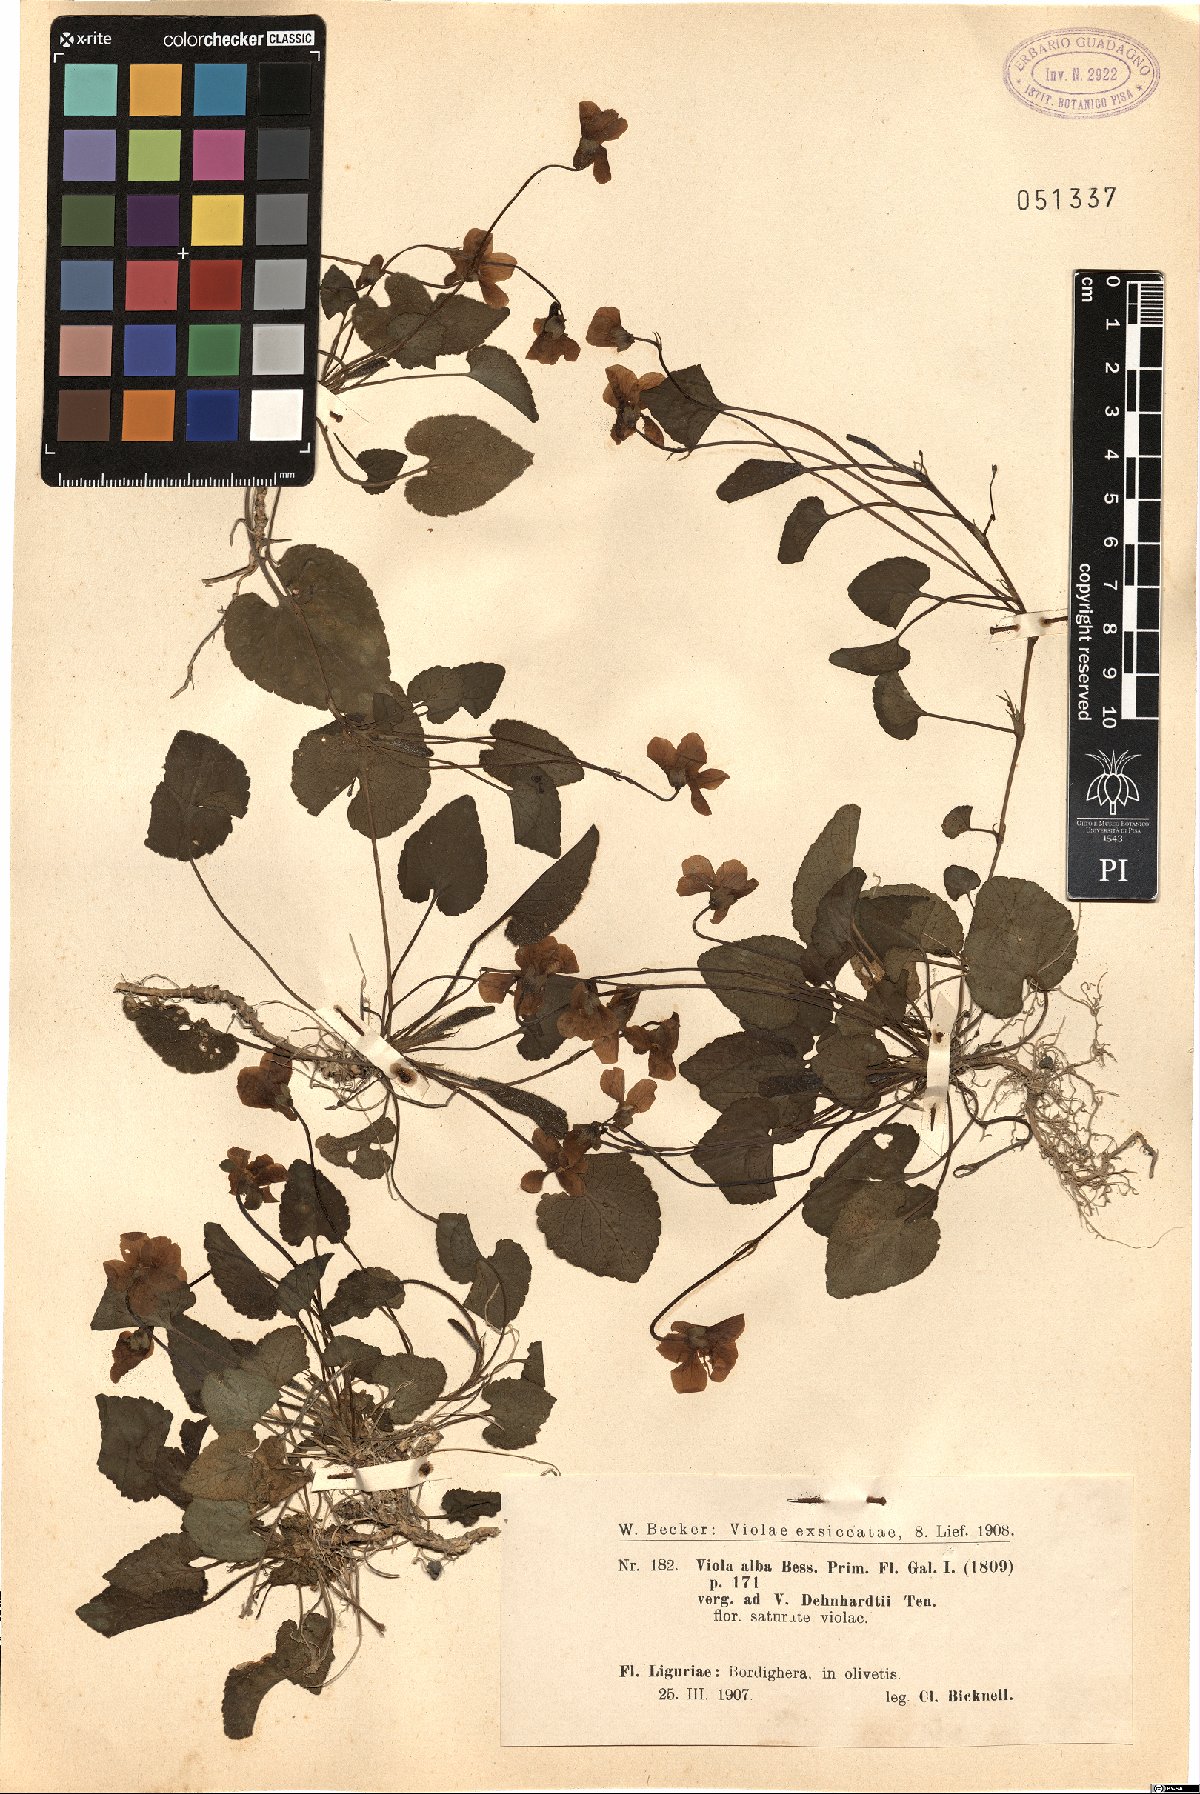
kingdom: Plantae
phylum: Tracheophyta
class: Magnoliopsida
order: Malpighiales
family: Violaceae
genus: Viola
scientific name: Viola alba
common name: White violet
